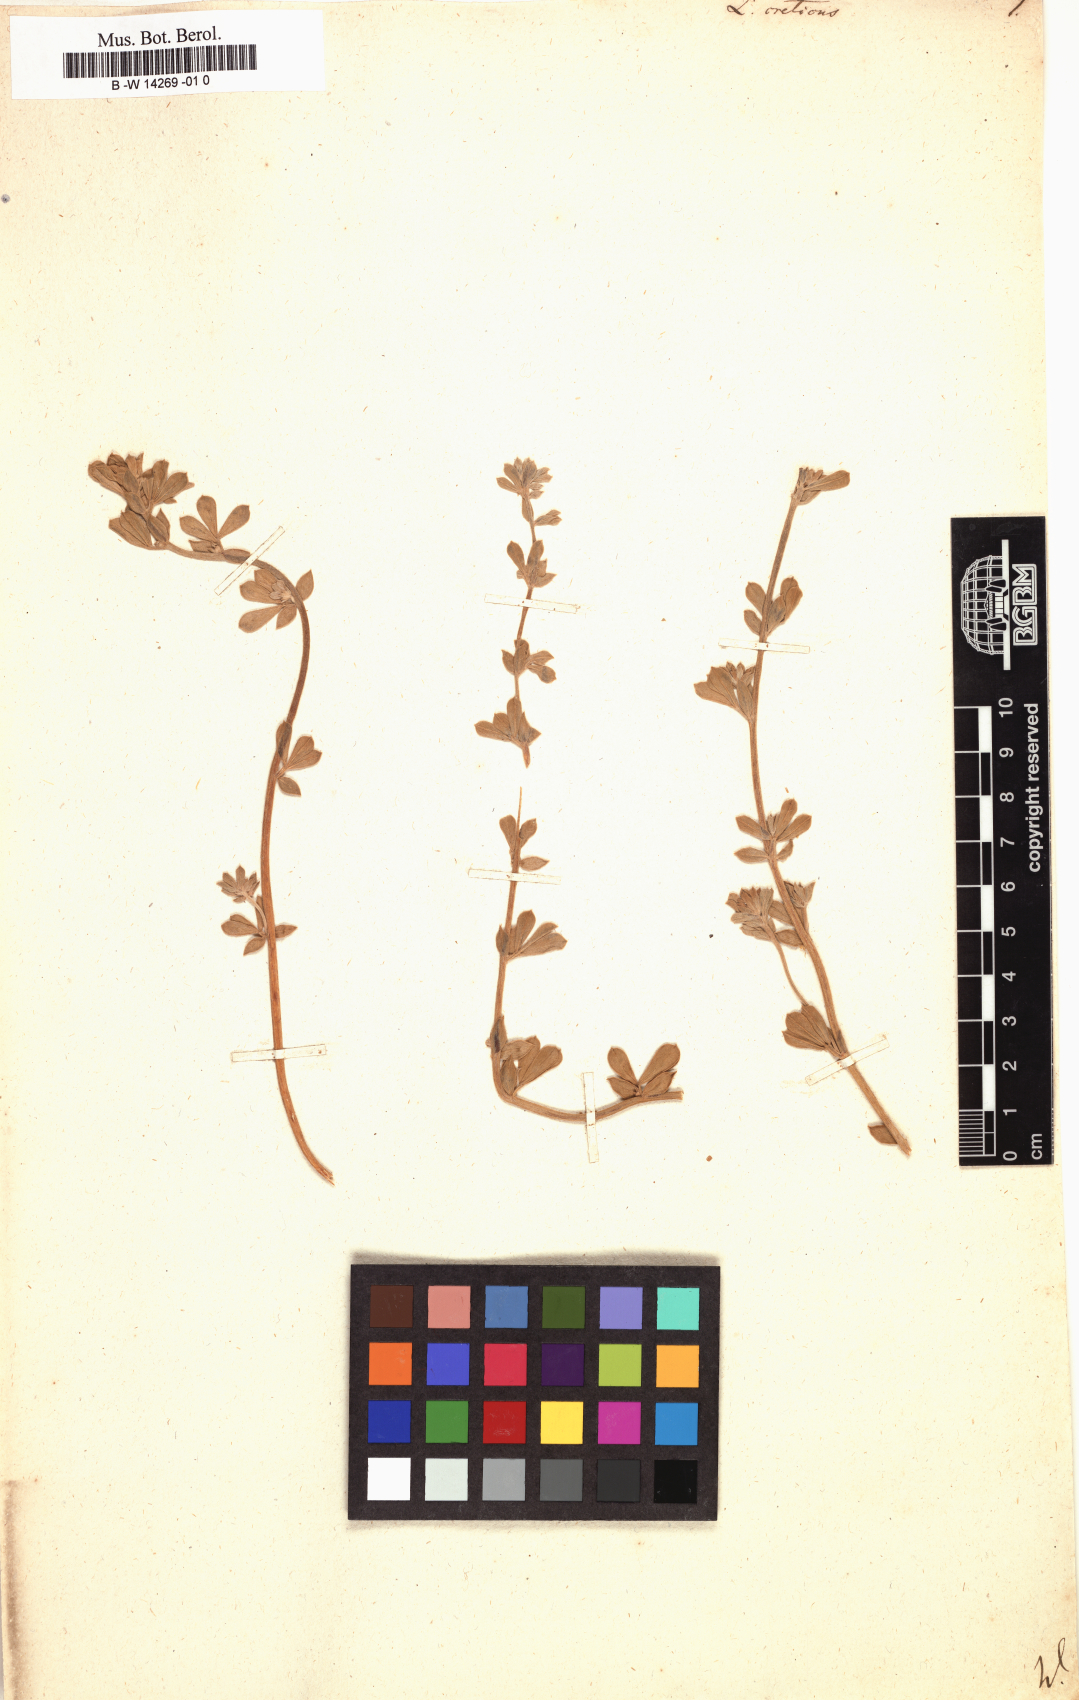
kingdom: Plantae
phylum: Tracheophyta
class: Magnoliopsida
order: Fabales
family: Fabaceae
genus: Lotus
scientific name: Lotus creticus
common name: Cretan bird's-foot trefoil
